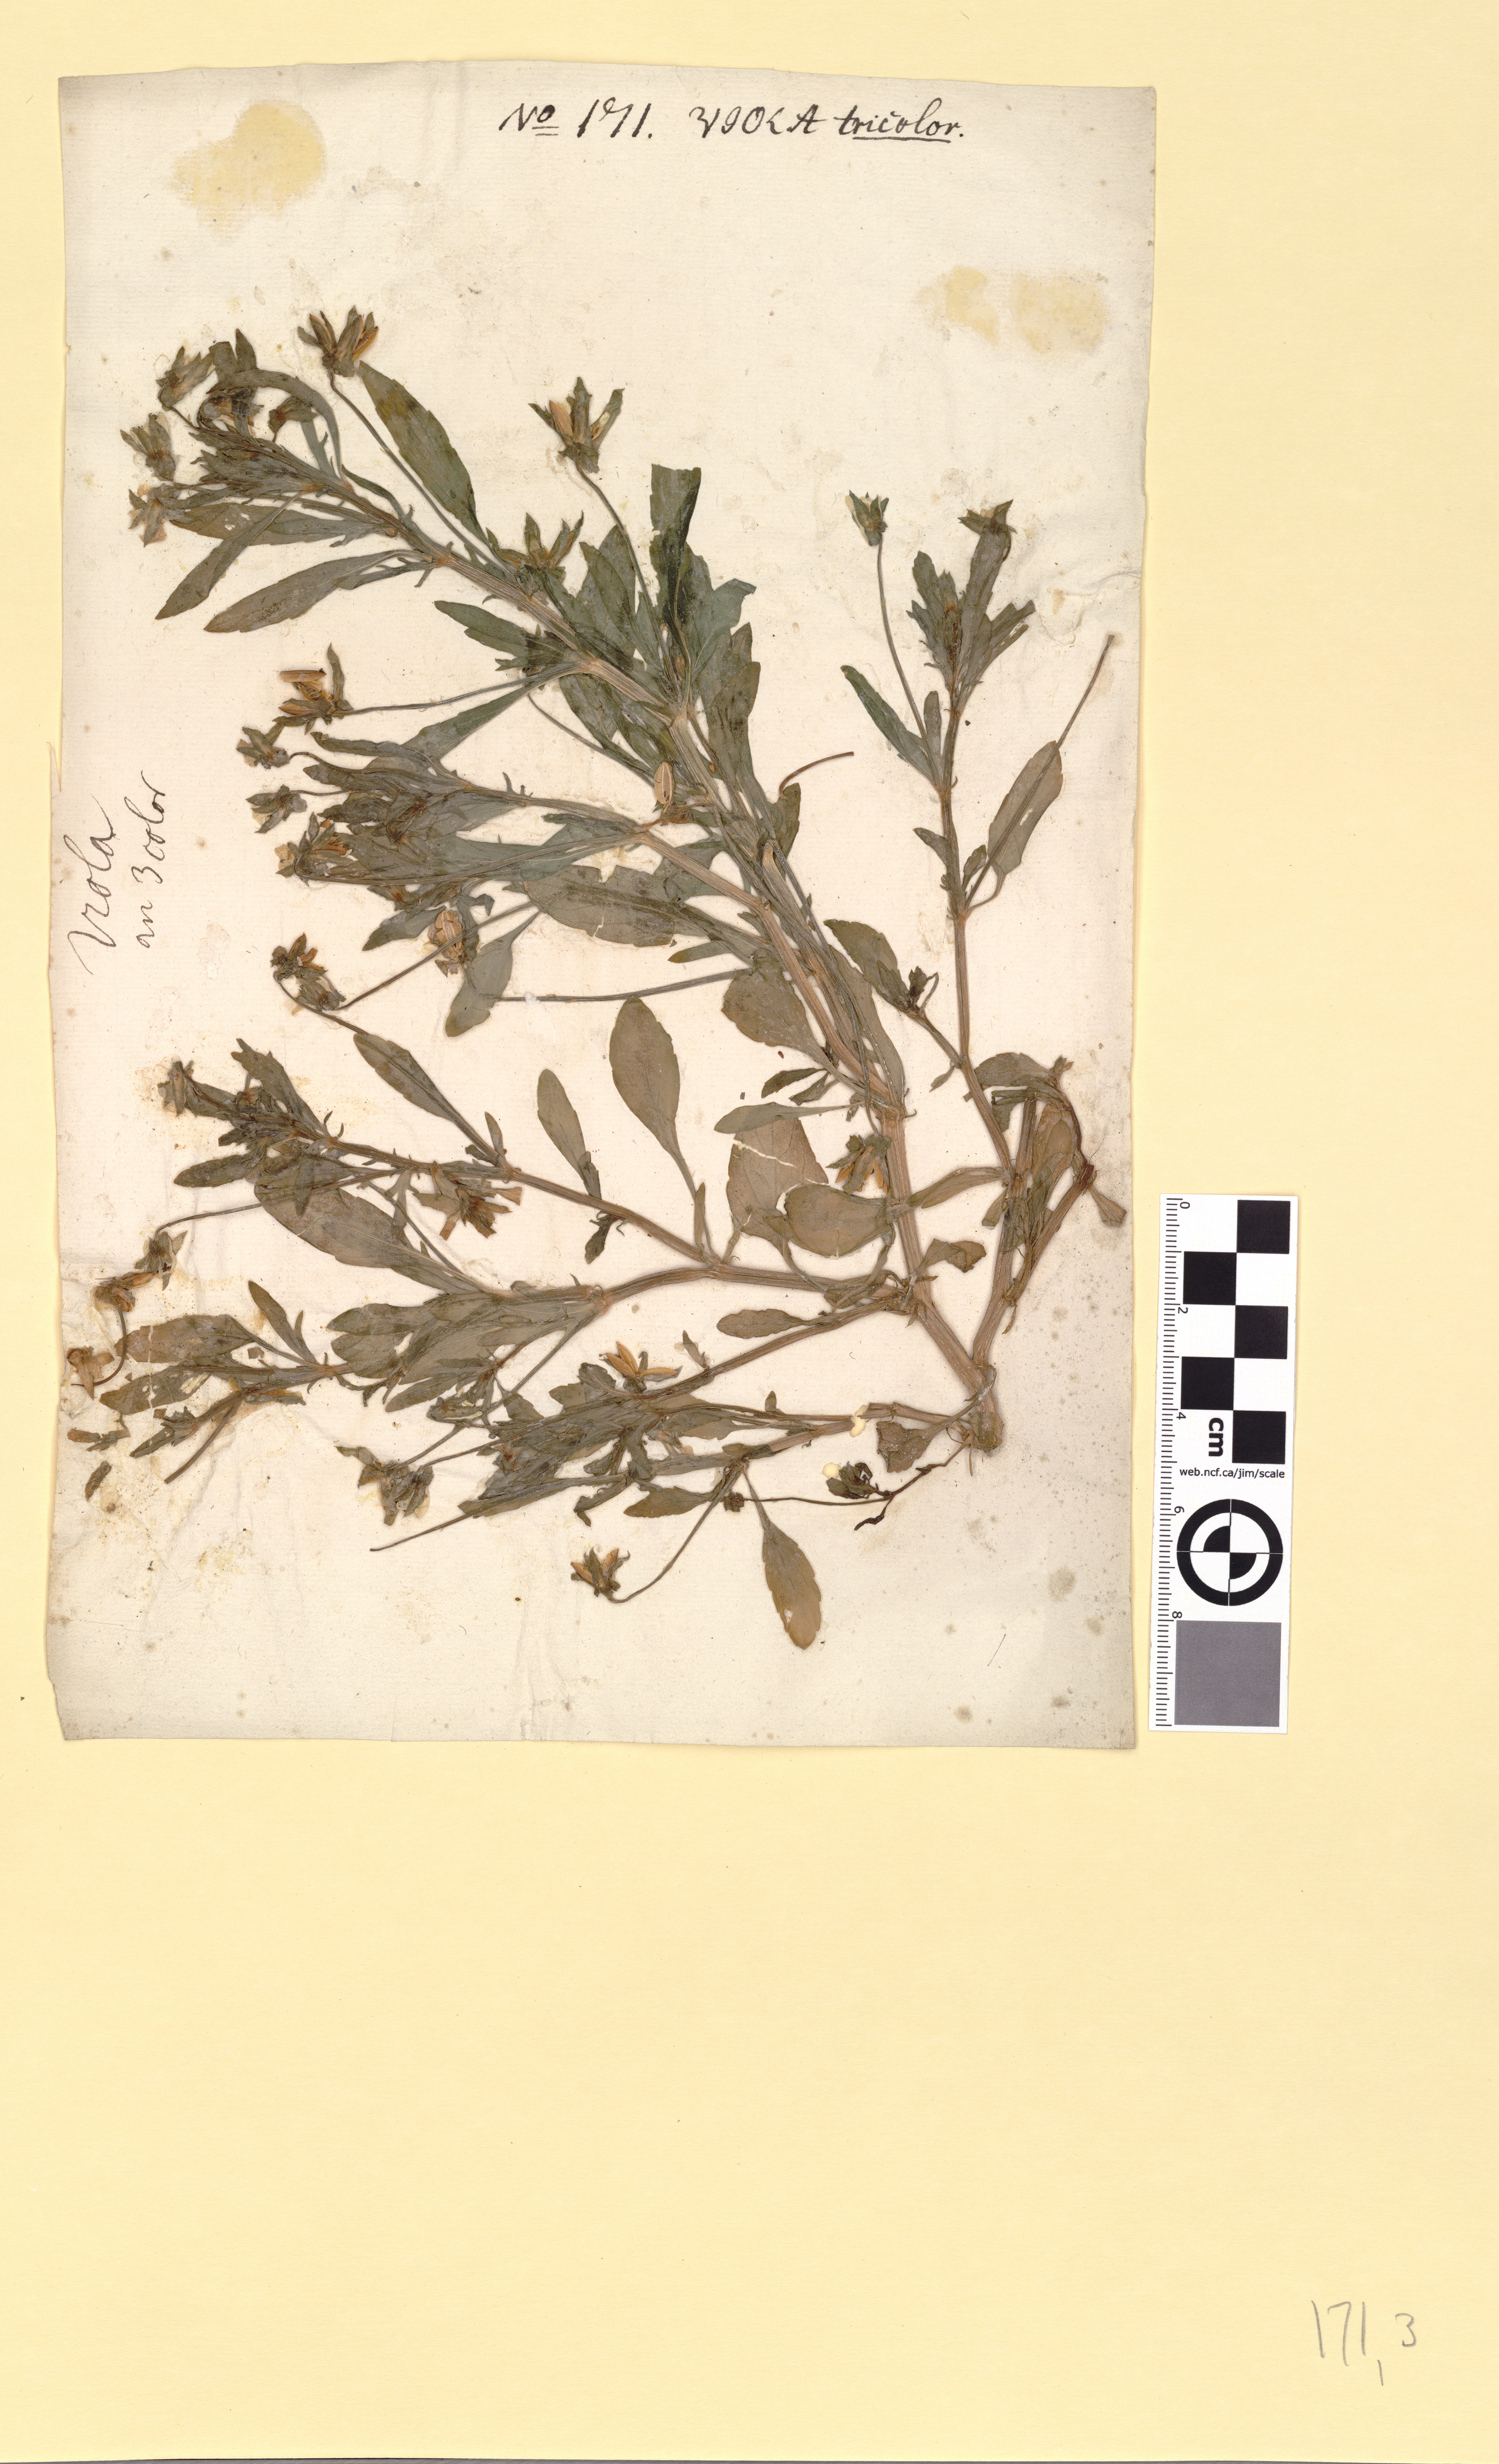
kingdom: Plantae
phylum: Tracheophyta
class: Magnoliopsida
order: Malpighiales
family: Violaceae
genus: Viola
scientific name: Viola tricolor
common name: Pansy
